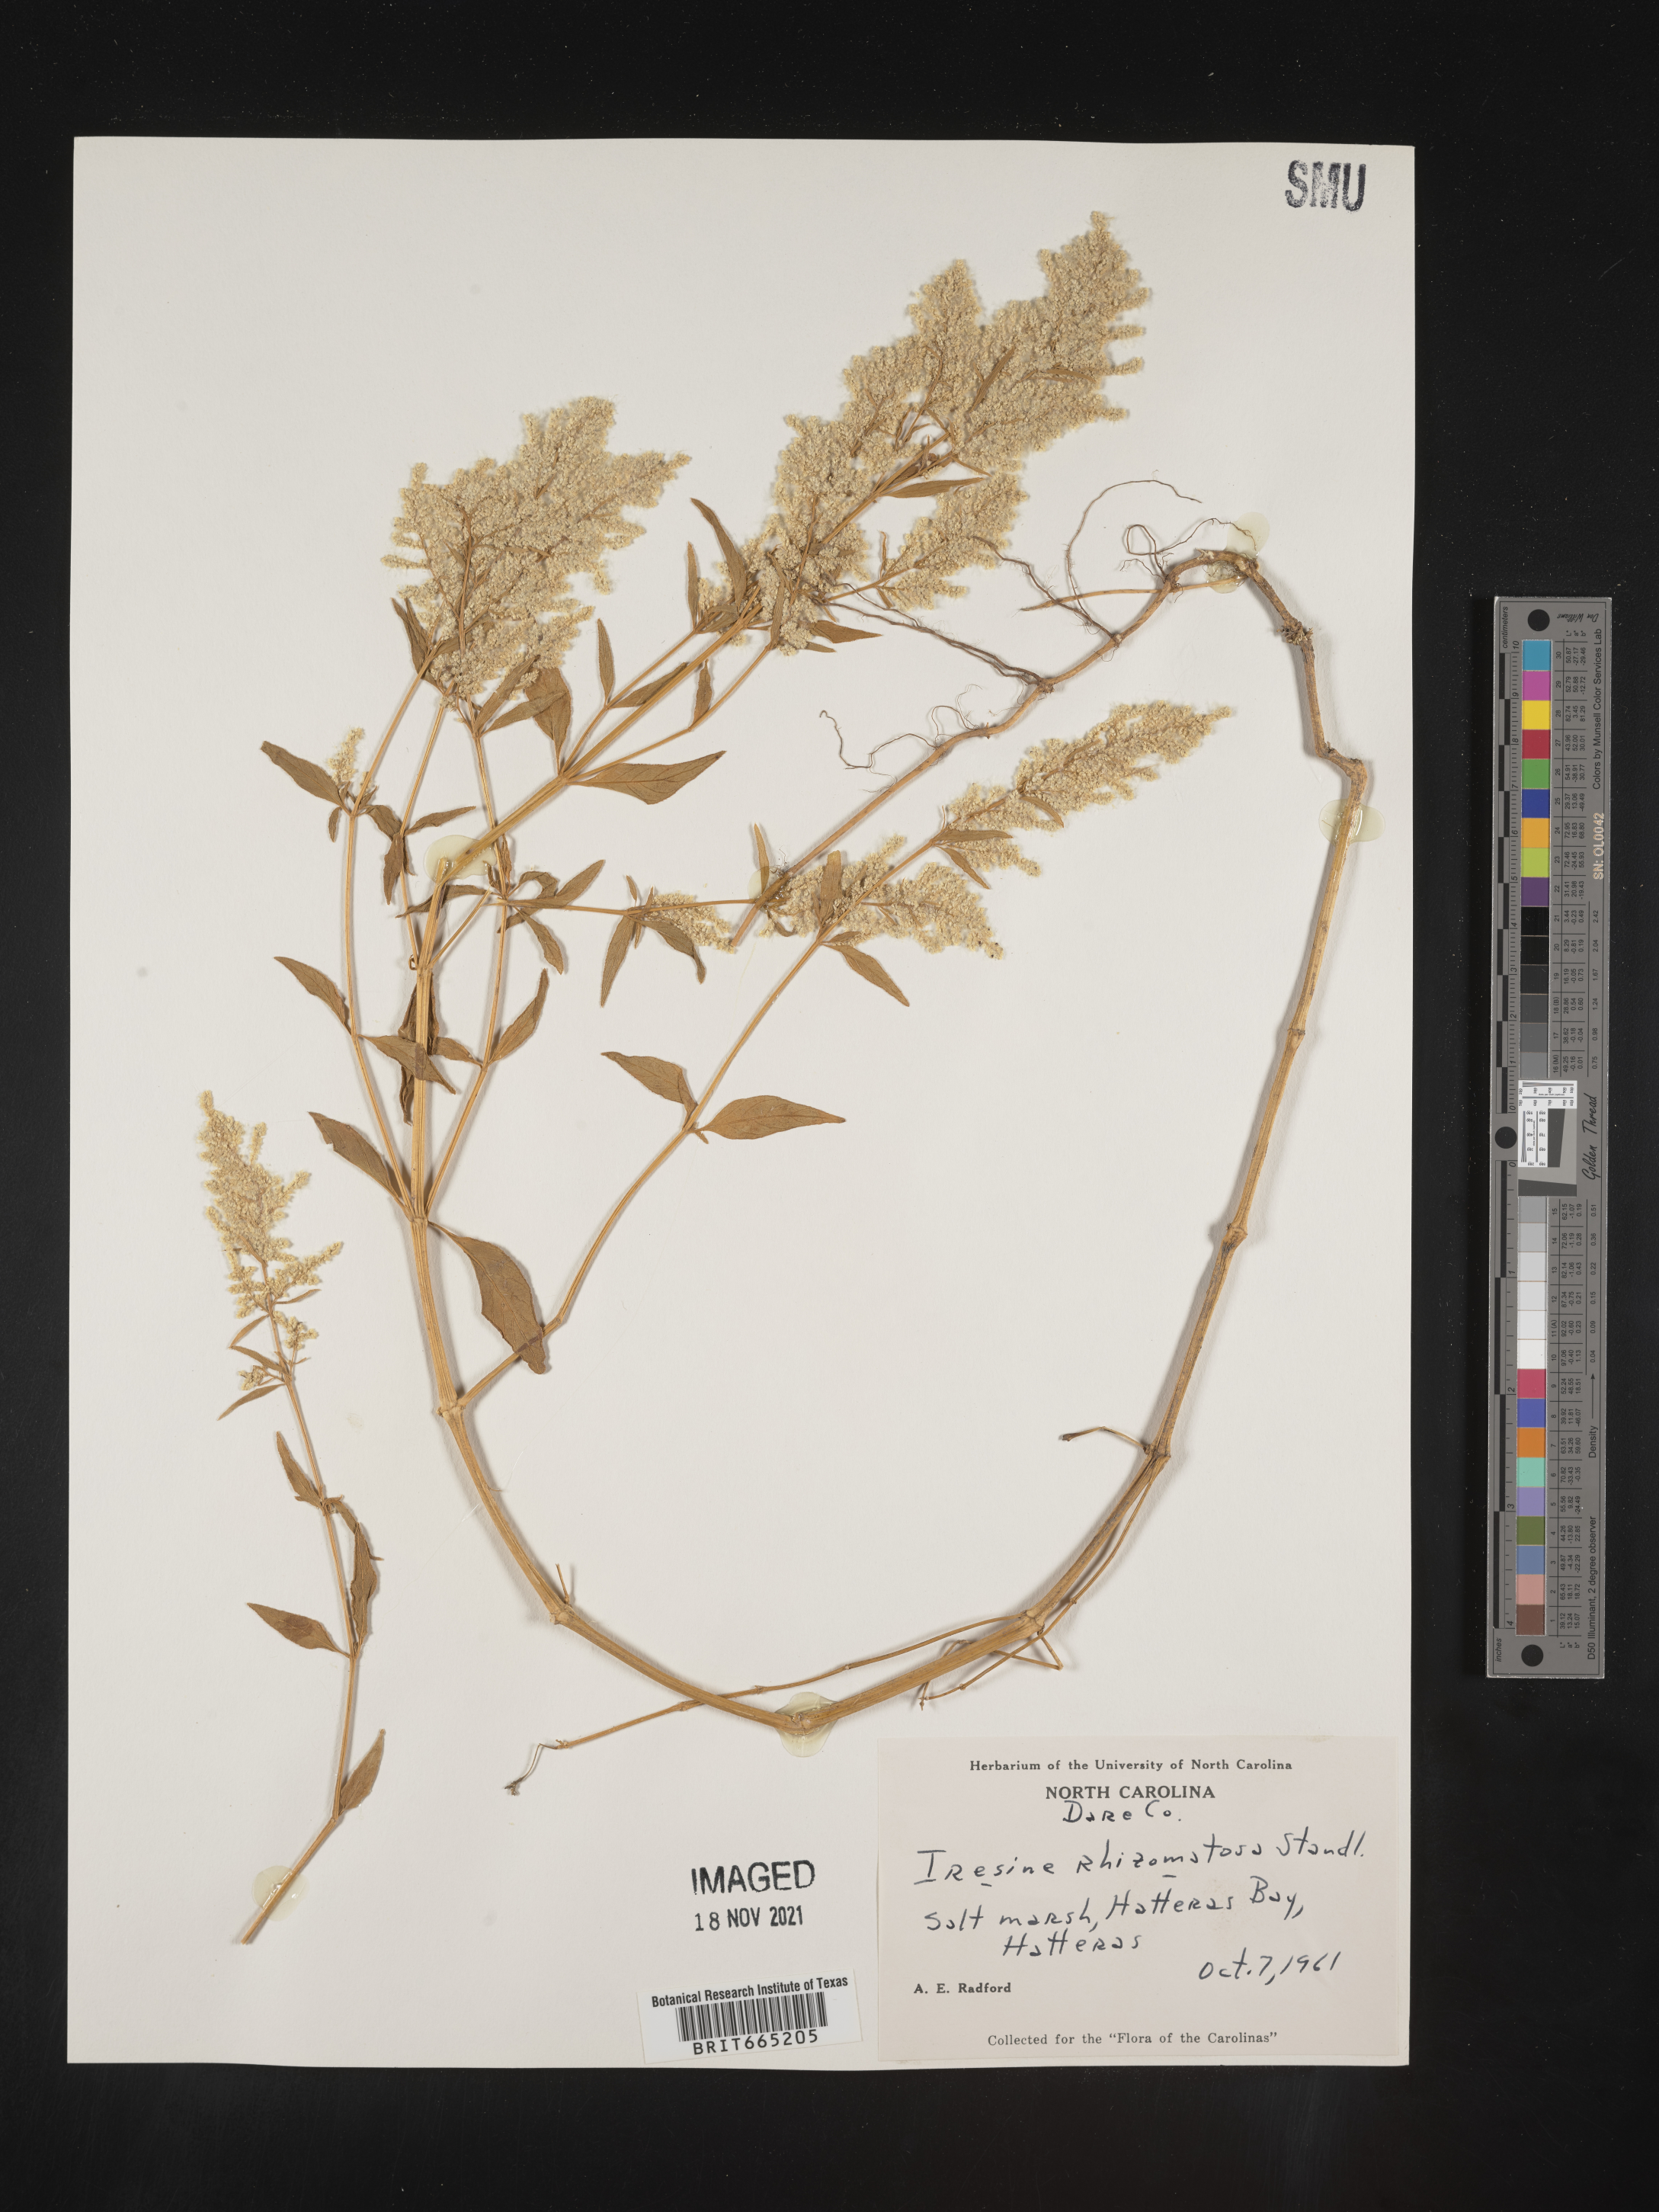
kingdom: Plantae
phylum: Tracheophyta
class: Magnoliopsida
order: Caryophyllales
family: Amaranthaceae
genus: Iresine
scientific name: Iresine rhizomatosa
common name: Juda's-bush
